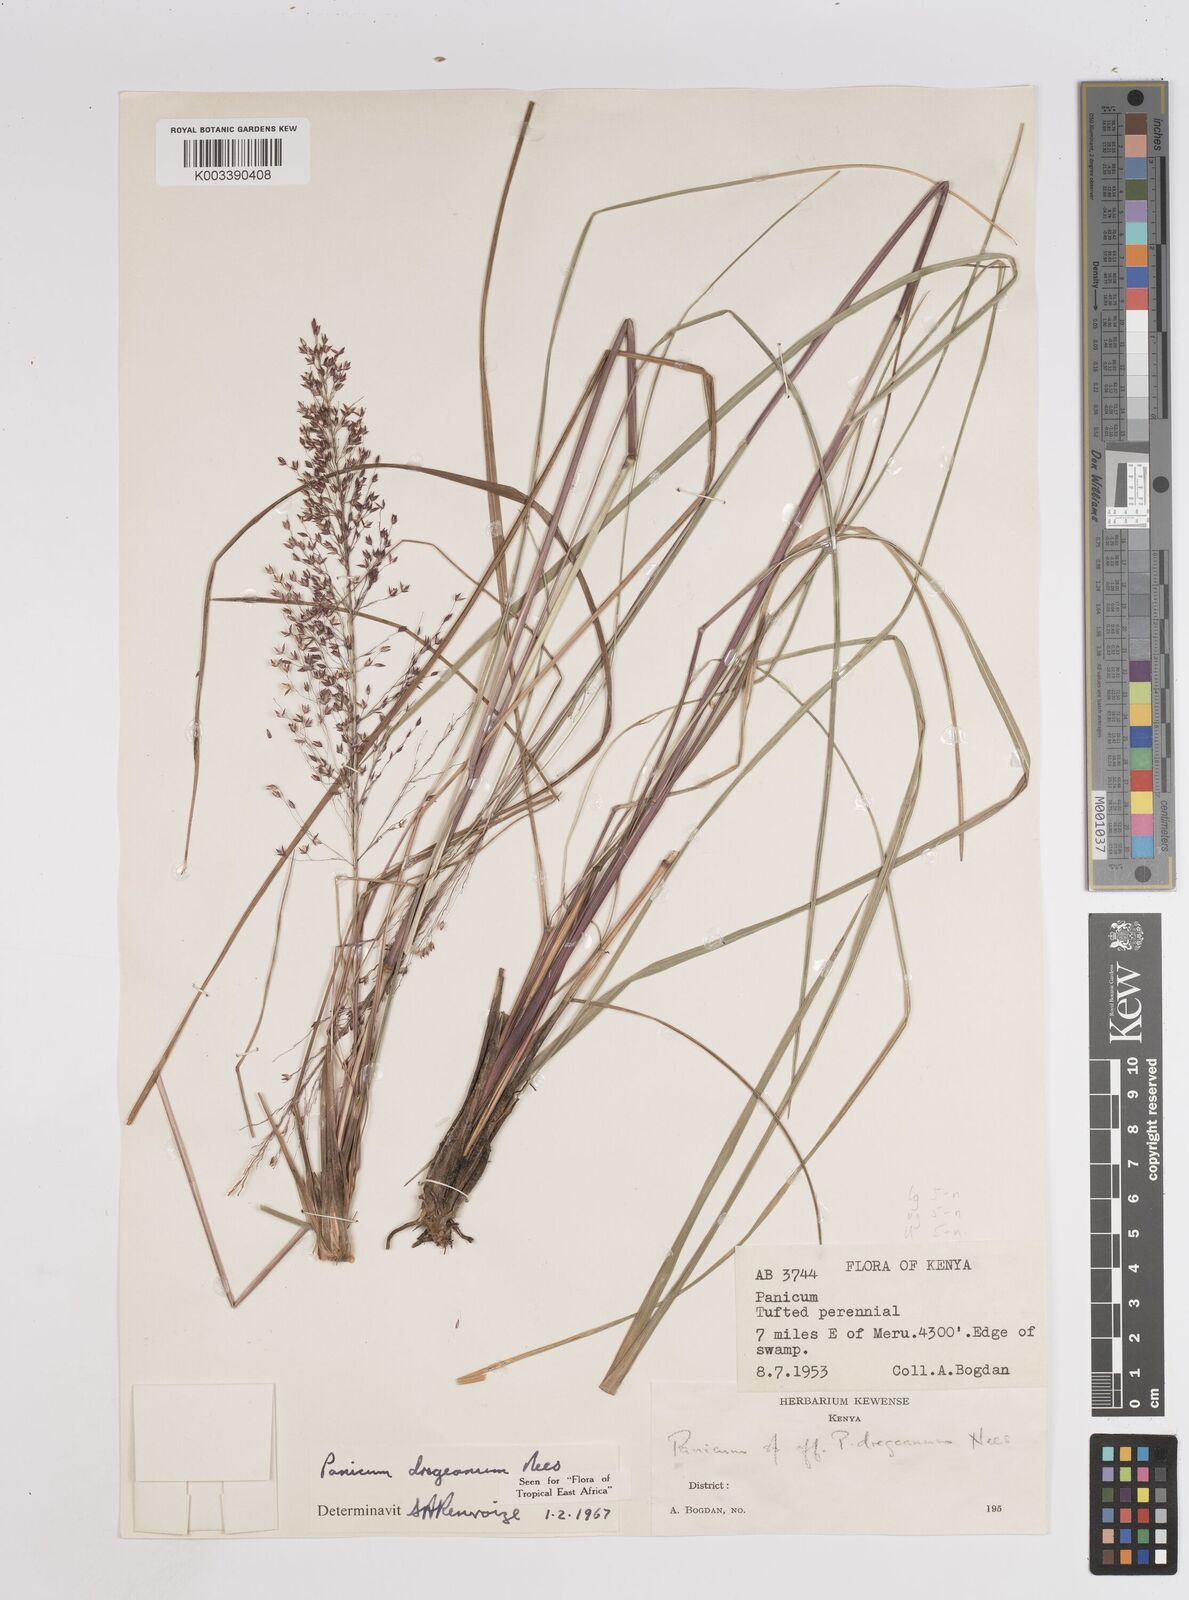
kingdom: Plantae
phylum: Tracheophyta
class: Liliopsida
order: Poales
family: Poaceae
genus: Panicum
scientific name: Panicum dregeanum
